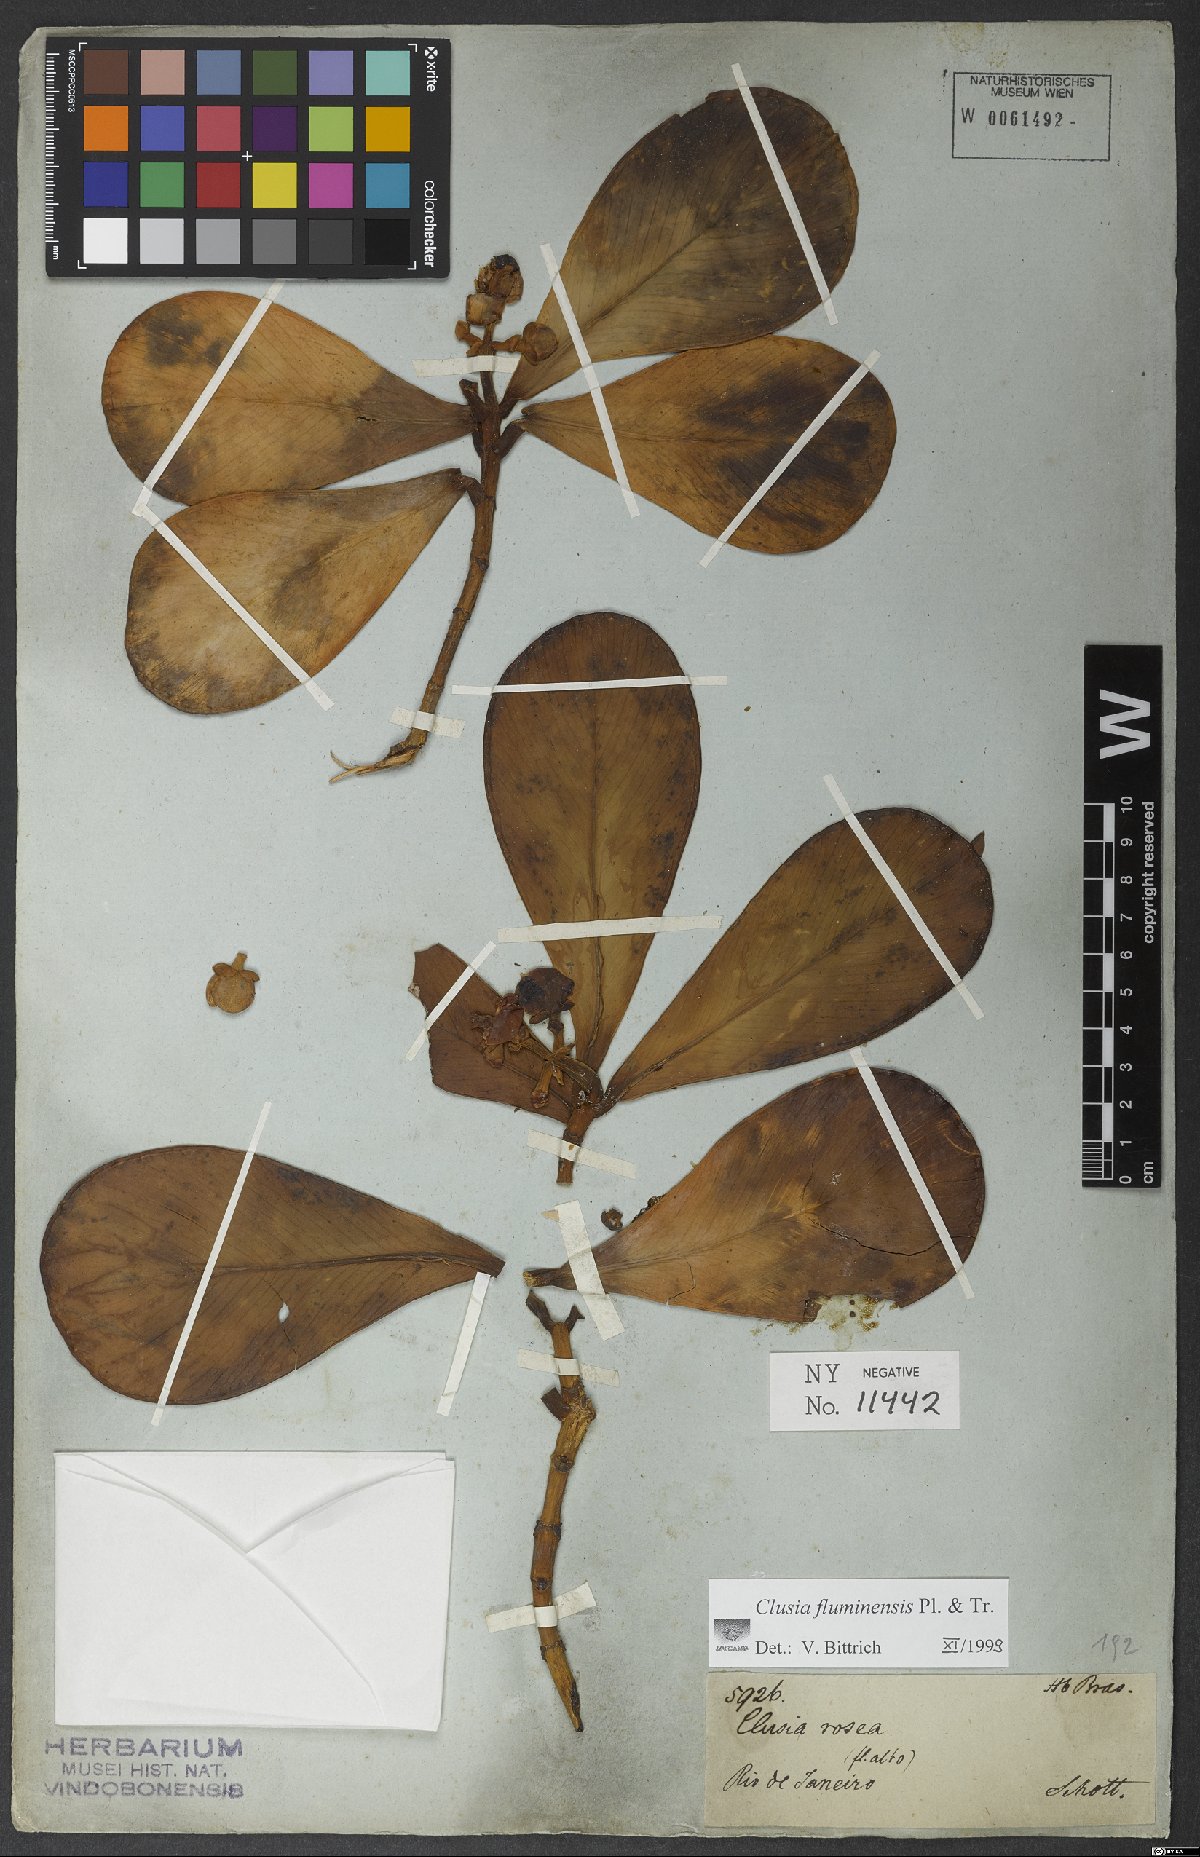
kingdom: Plantae
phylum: Tracheophyta
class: Magnoliopsida
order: Malpighiales
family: Clusiaceae
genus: Clusia
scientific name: Clusia fluminensis
